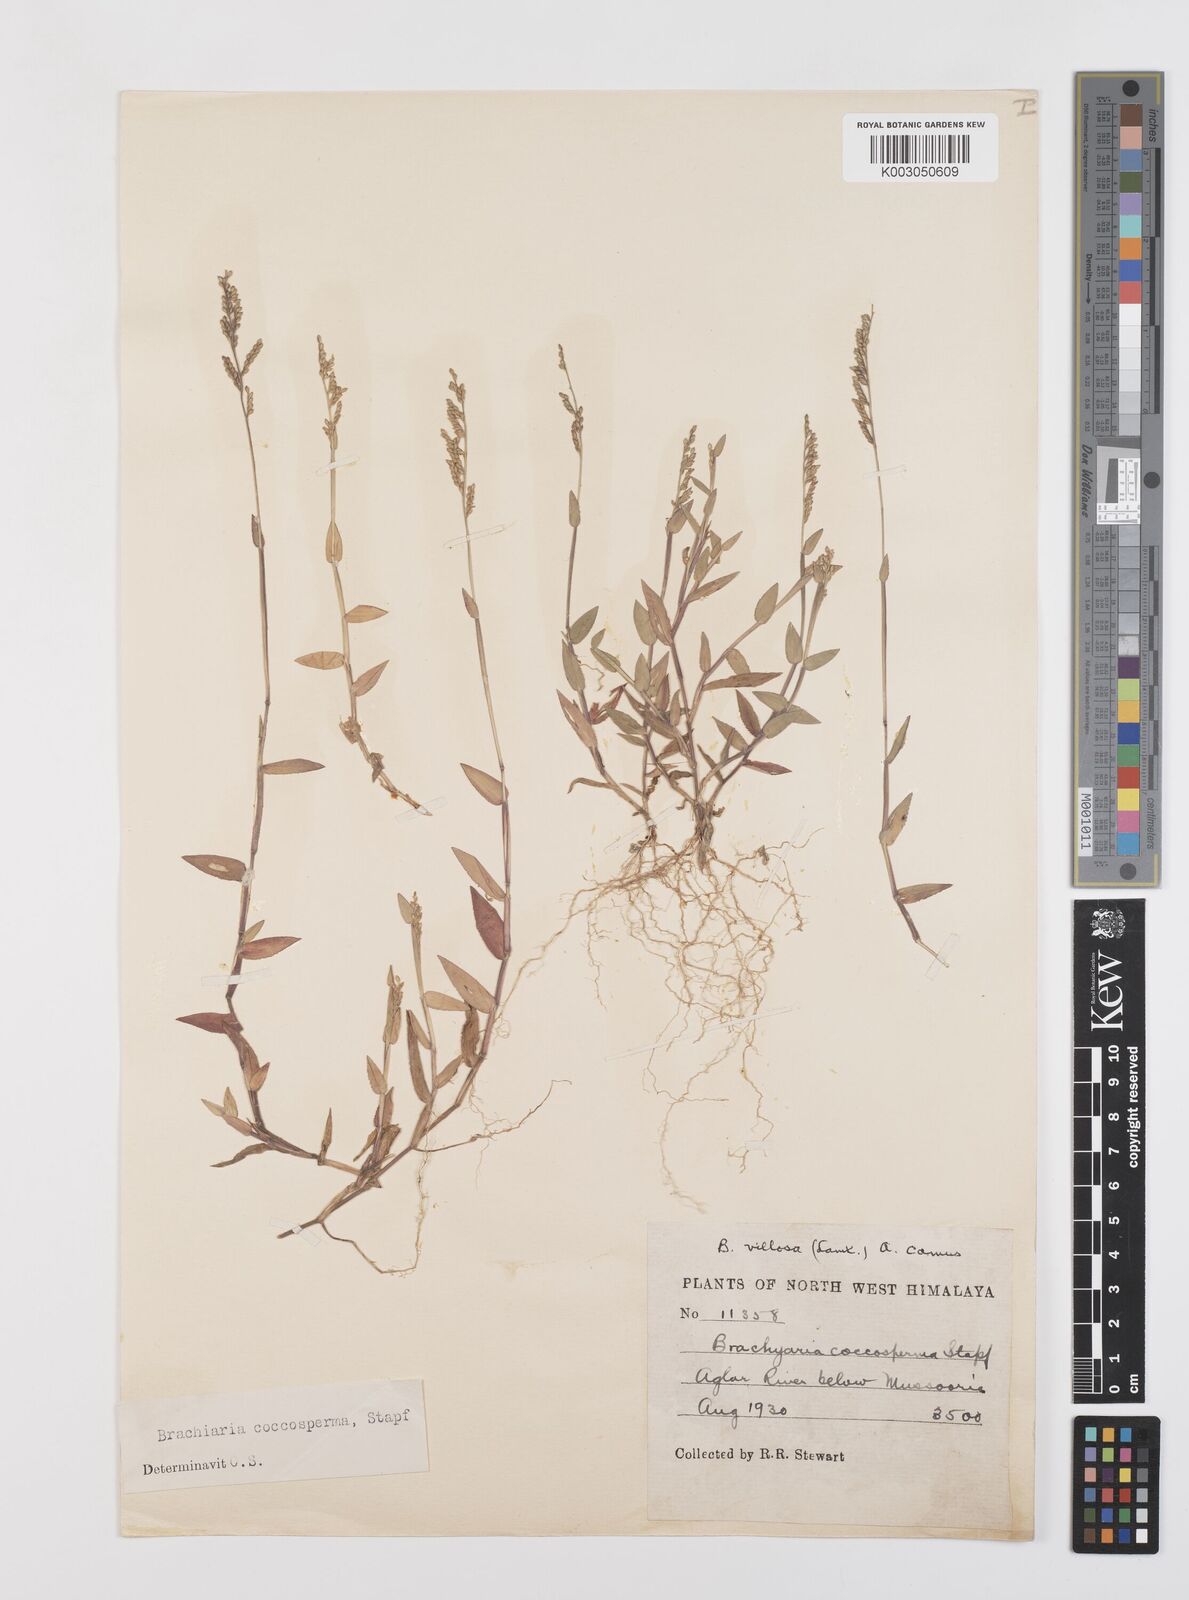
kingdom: Plantae
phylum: Tracheophyta
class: Liliopsida
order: Poales
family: Poaceae
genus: Urochloa
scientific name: Urochloa villosa
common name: Hairy signalgrass
